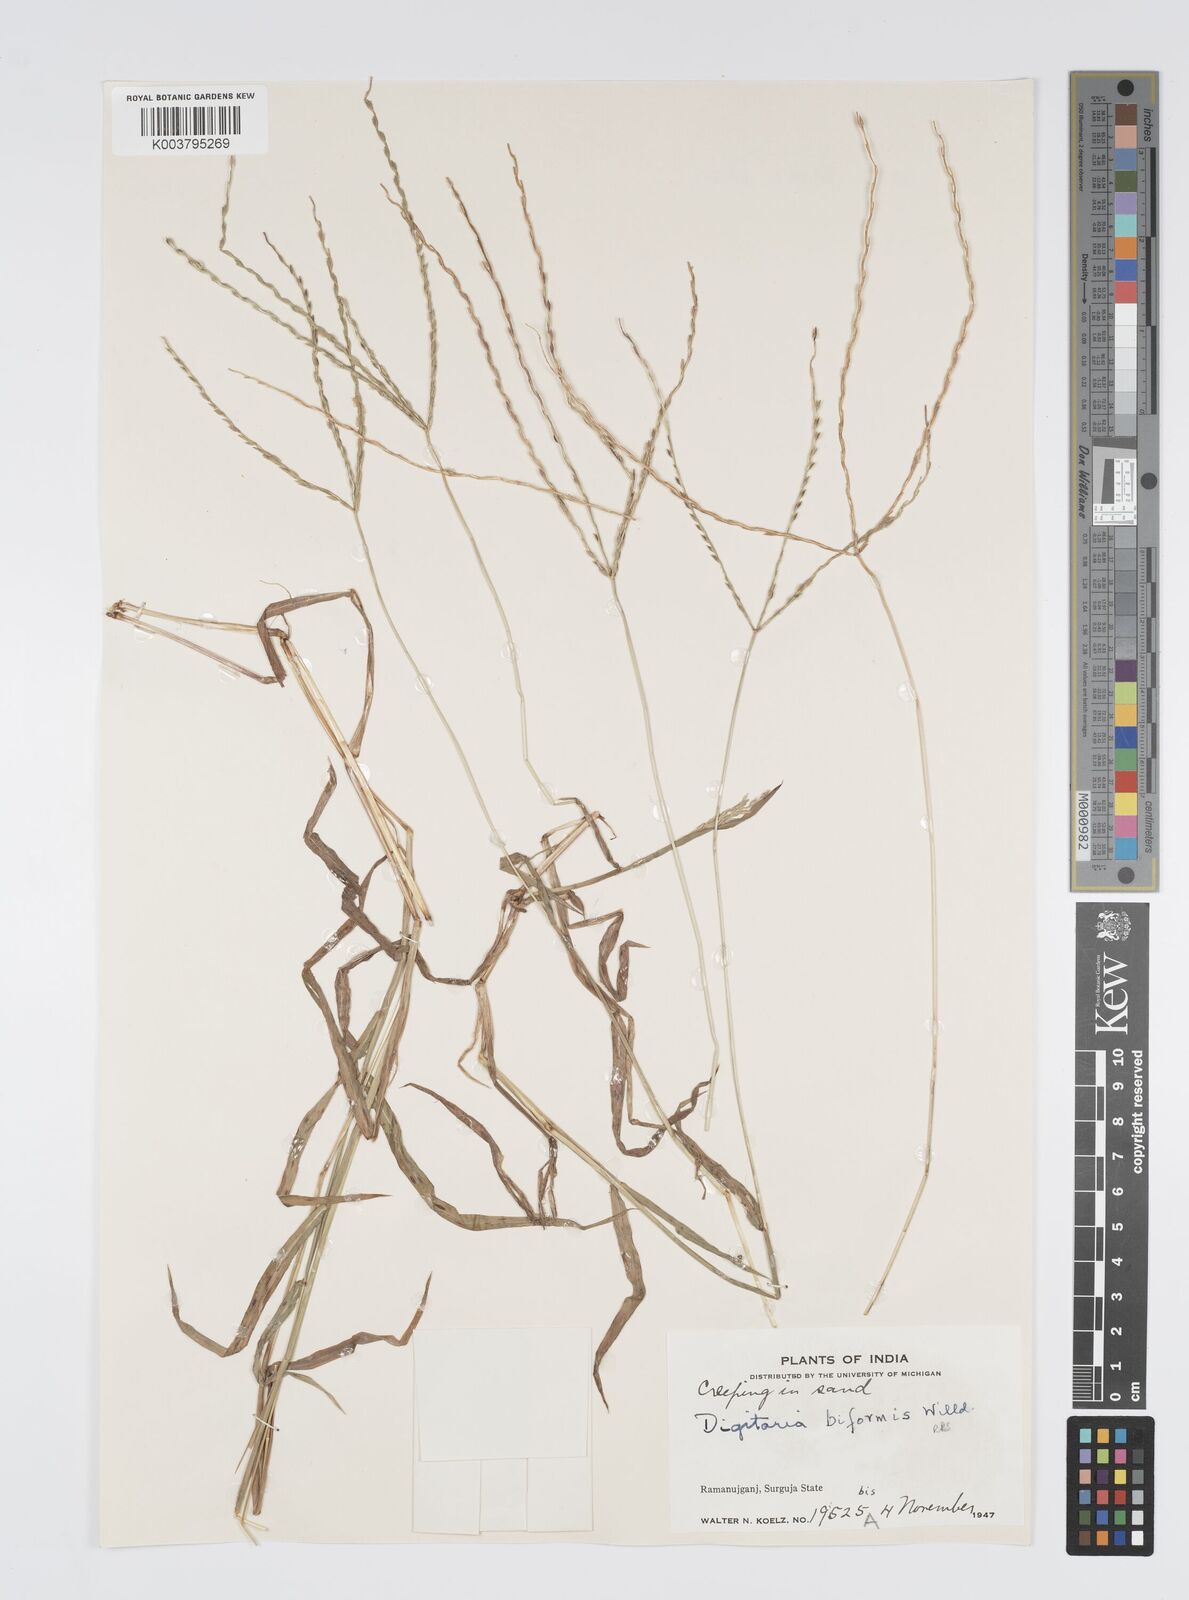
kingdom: Plantae
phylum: Tracheophyta
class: Liliopsida
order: Poales
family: Poaceae
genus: Digitaria
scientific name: Digitaria ciliaris
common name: Tropical finger-grass
